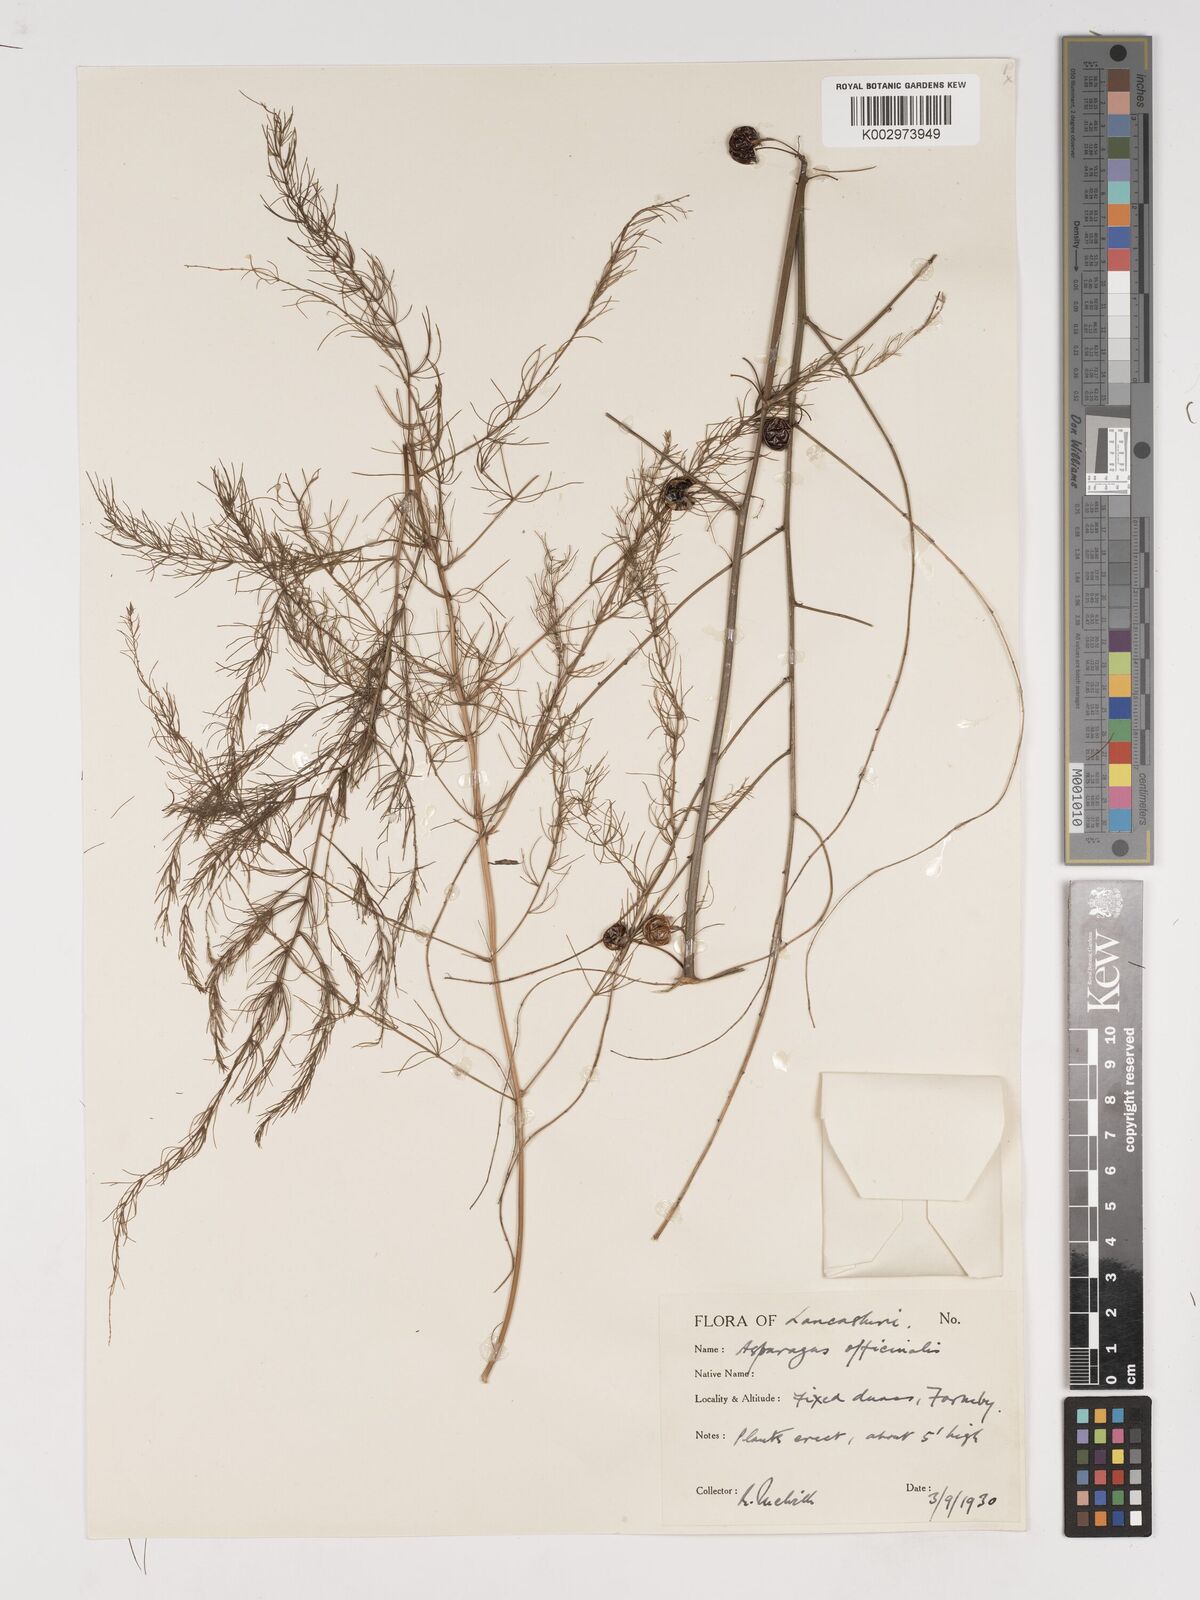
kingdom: Plantae
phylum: Tracheophyta
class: Liliopsida
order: Asparagales
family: Asparagaceae
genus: Asparagus
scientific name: Asparagus officinalis
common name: Garden asparagus
